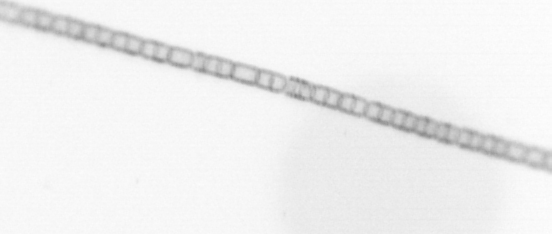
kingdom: Chromista
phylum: Ochrophyta
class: Bacillariophyceae
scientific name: Bacillariophyceae
